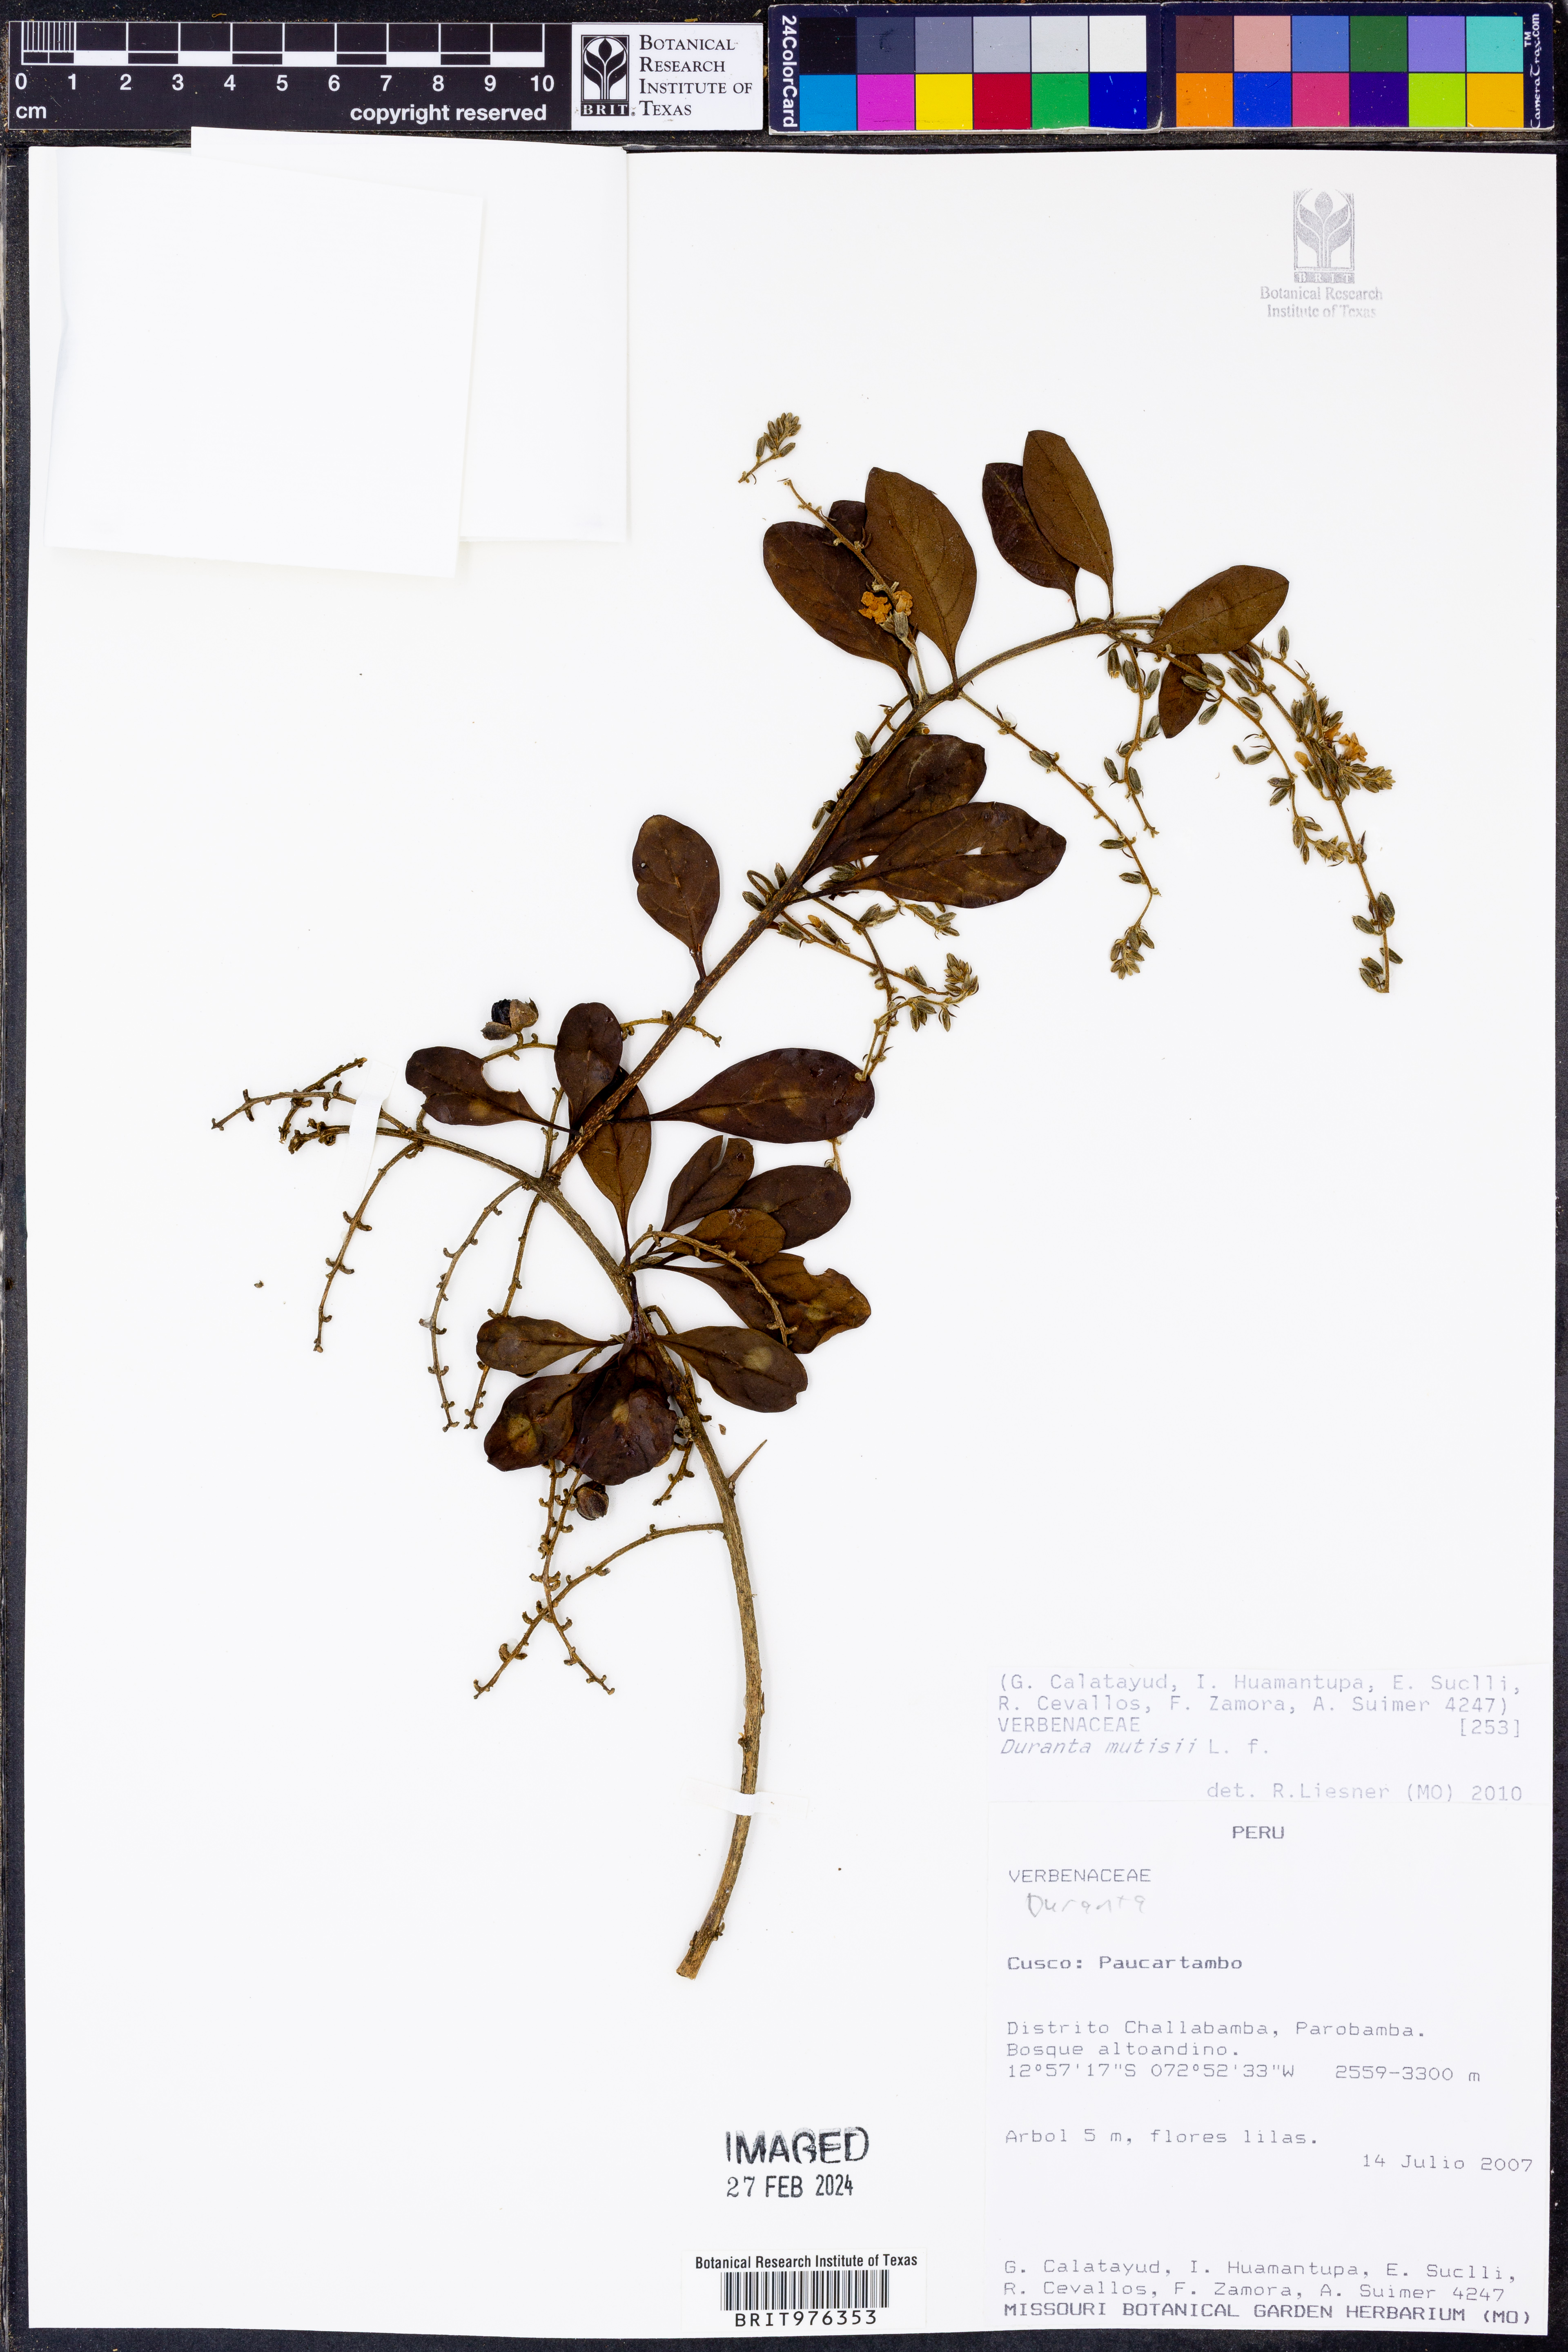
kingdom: Plantae
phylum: Tracheophyta
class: Magnoliopsida
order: Lamiales
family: Verbenaceae
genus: Duranta
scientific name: Duranta
